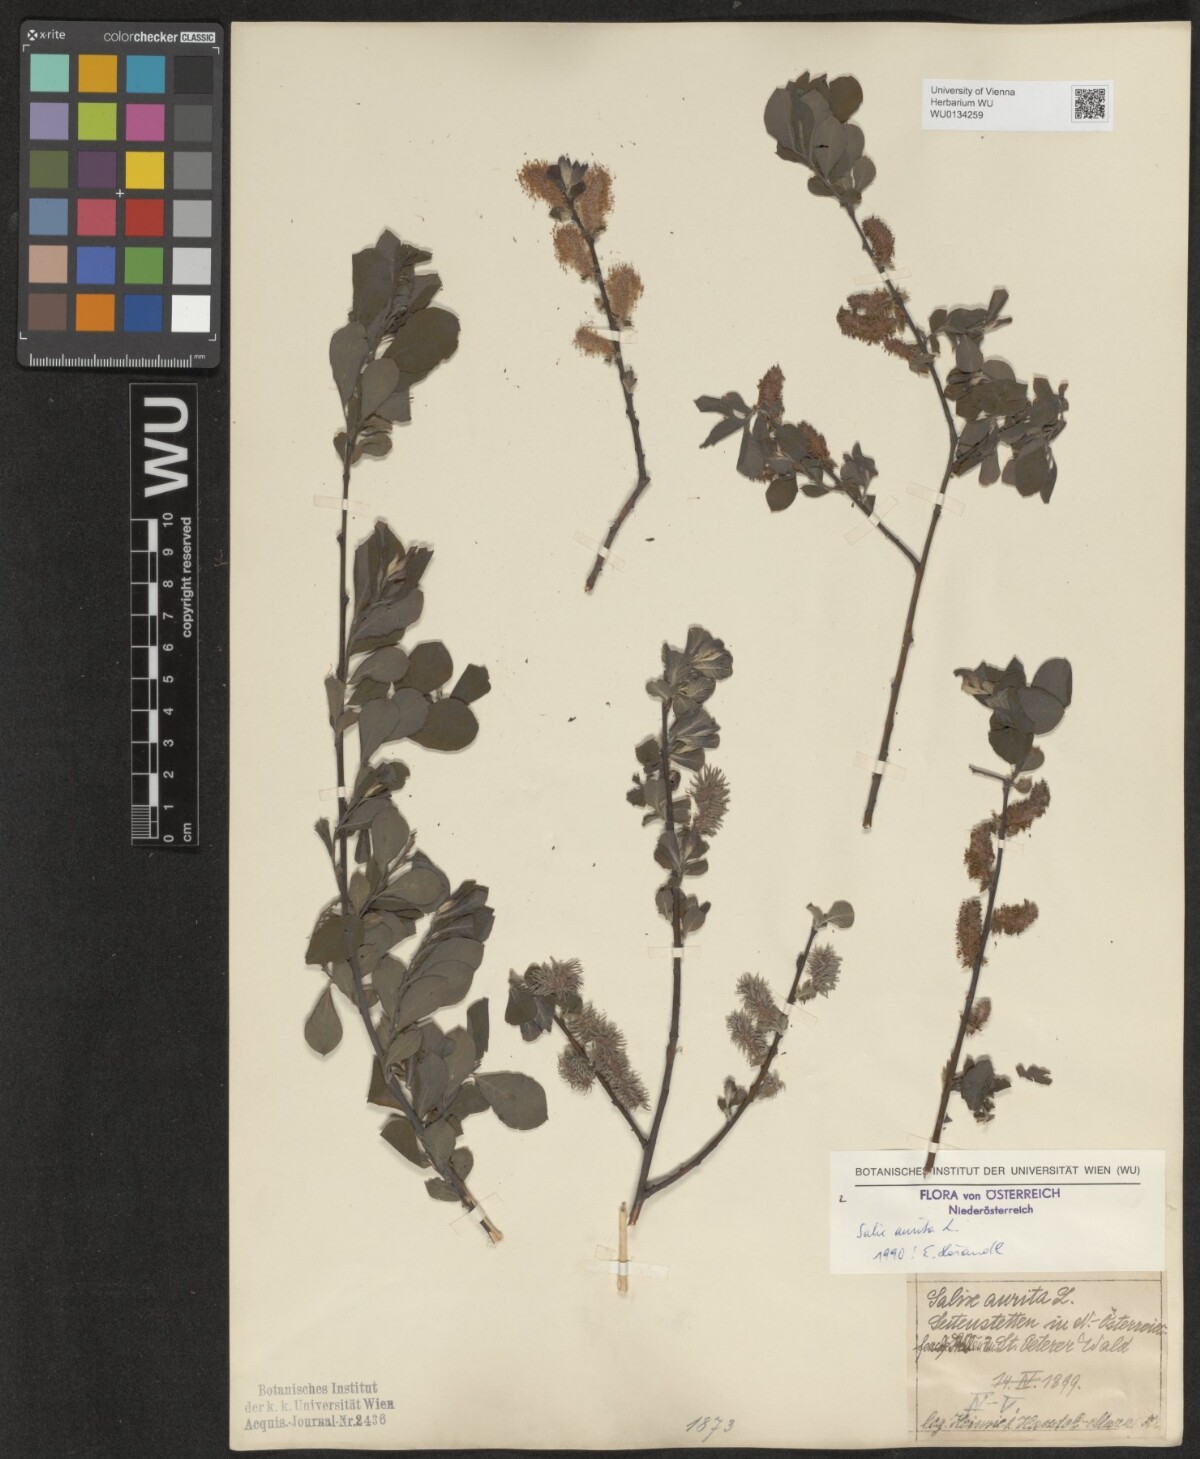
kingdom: Plantae
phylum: Tracheophyta
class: Magnoliopsida
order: Malpighiales
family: Salicaceae
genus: Salix
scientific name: Salix aurita
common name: Eared willow
